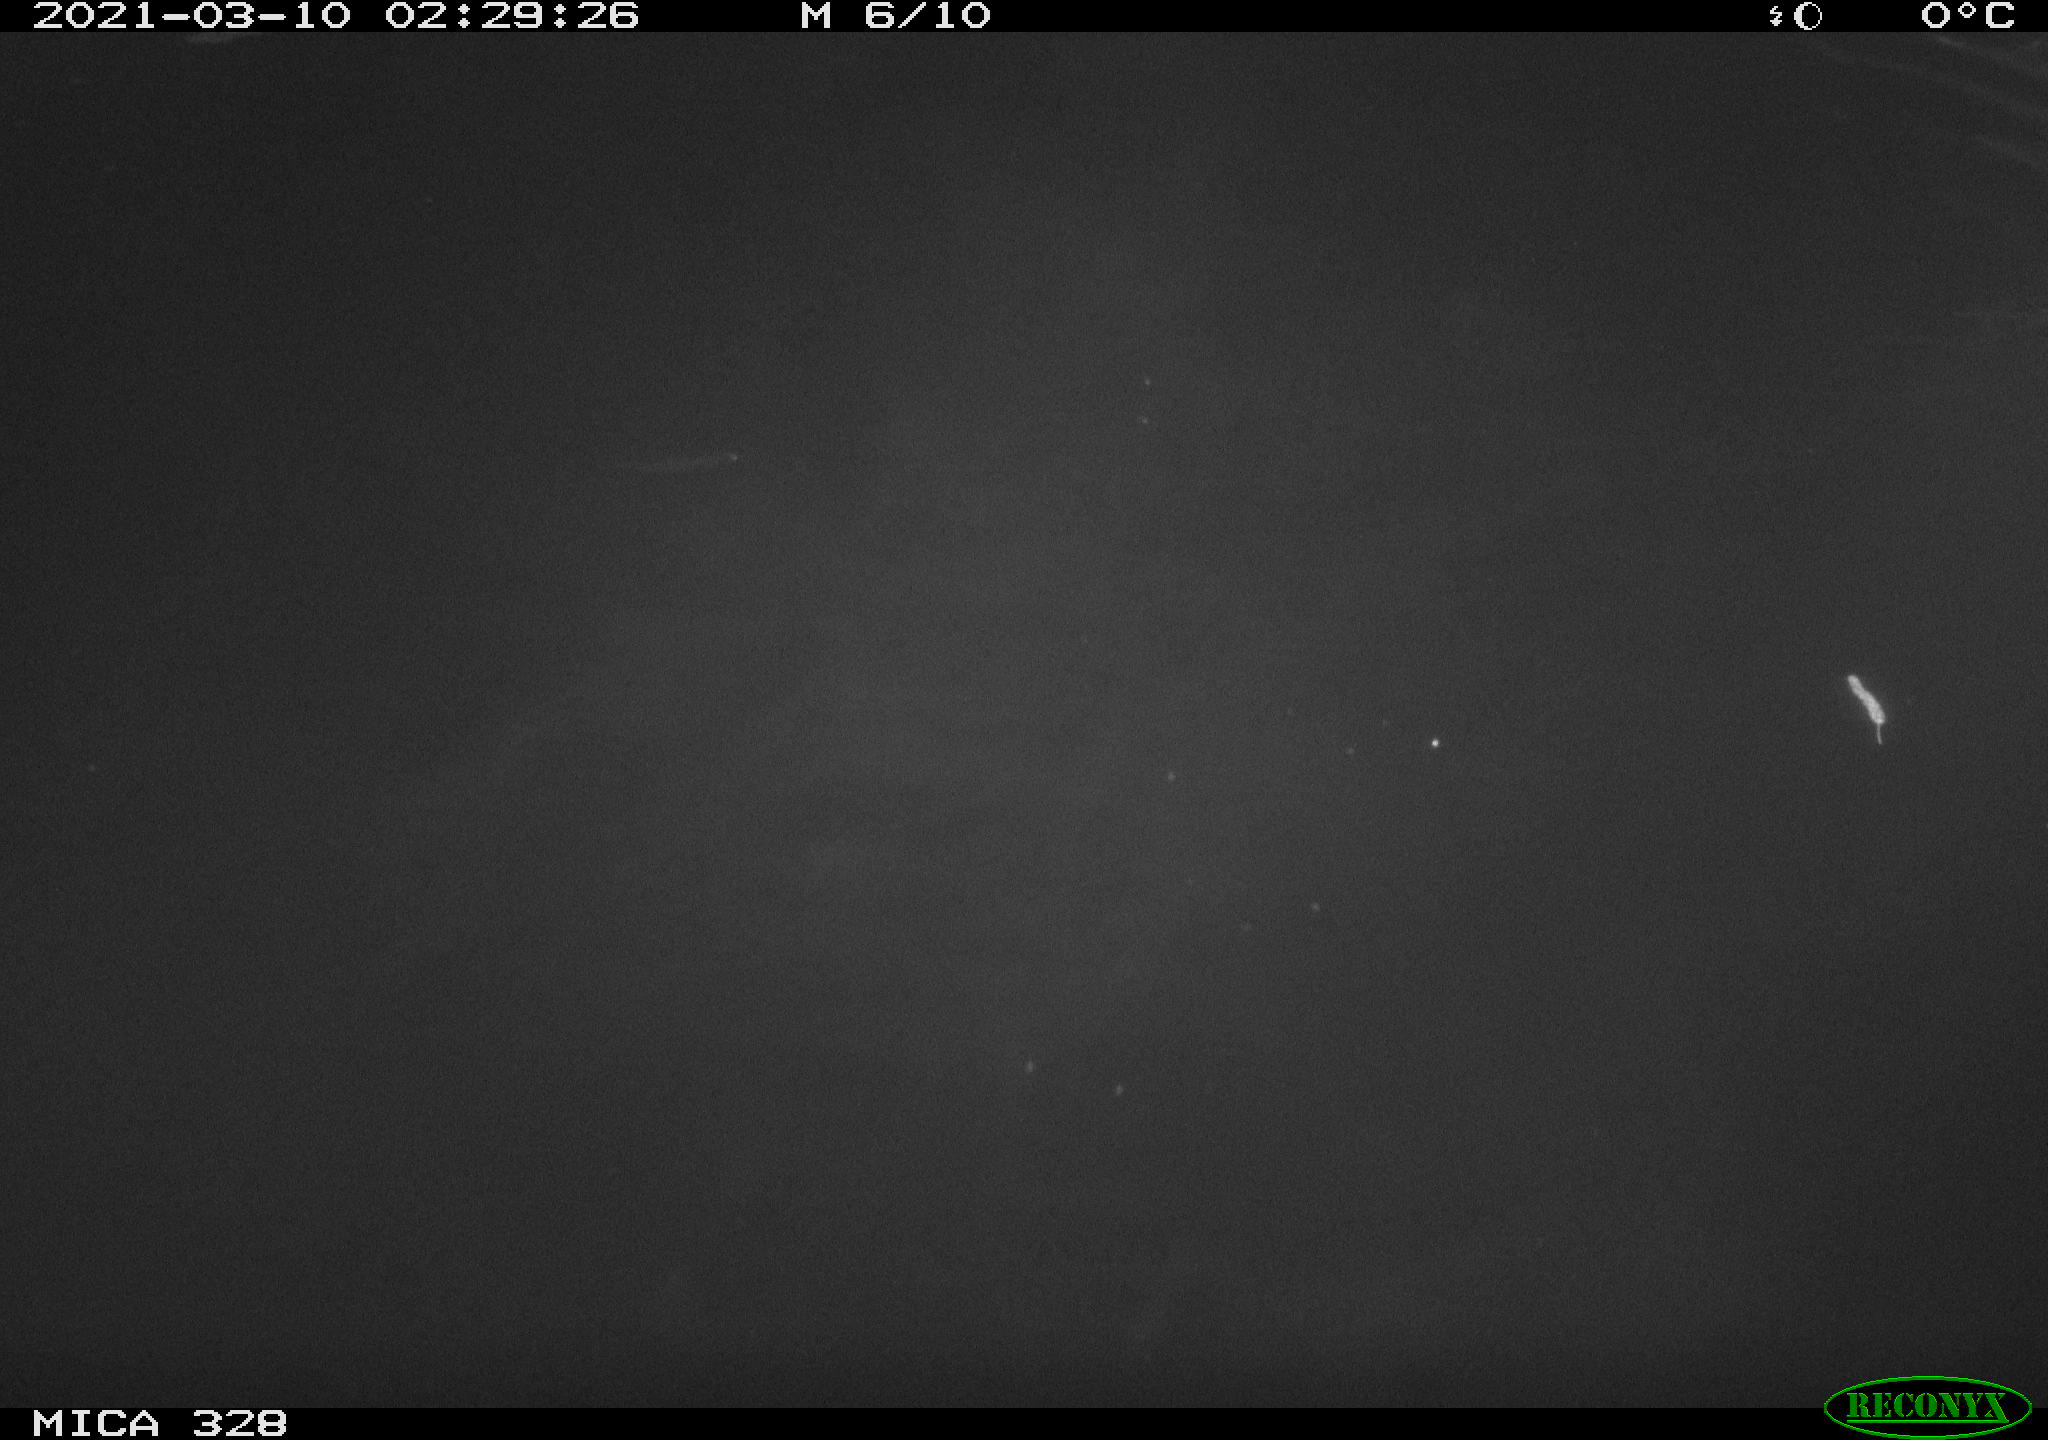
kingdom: Animalia
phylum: Chordata
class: Mammalia
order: Rodentia
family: Cricetidae
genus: Ondatra
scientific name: Ondatra zibethicus
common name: Muskrat
